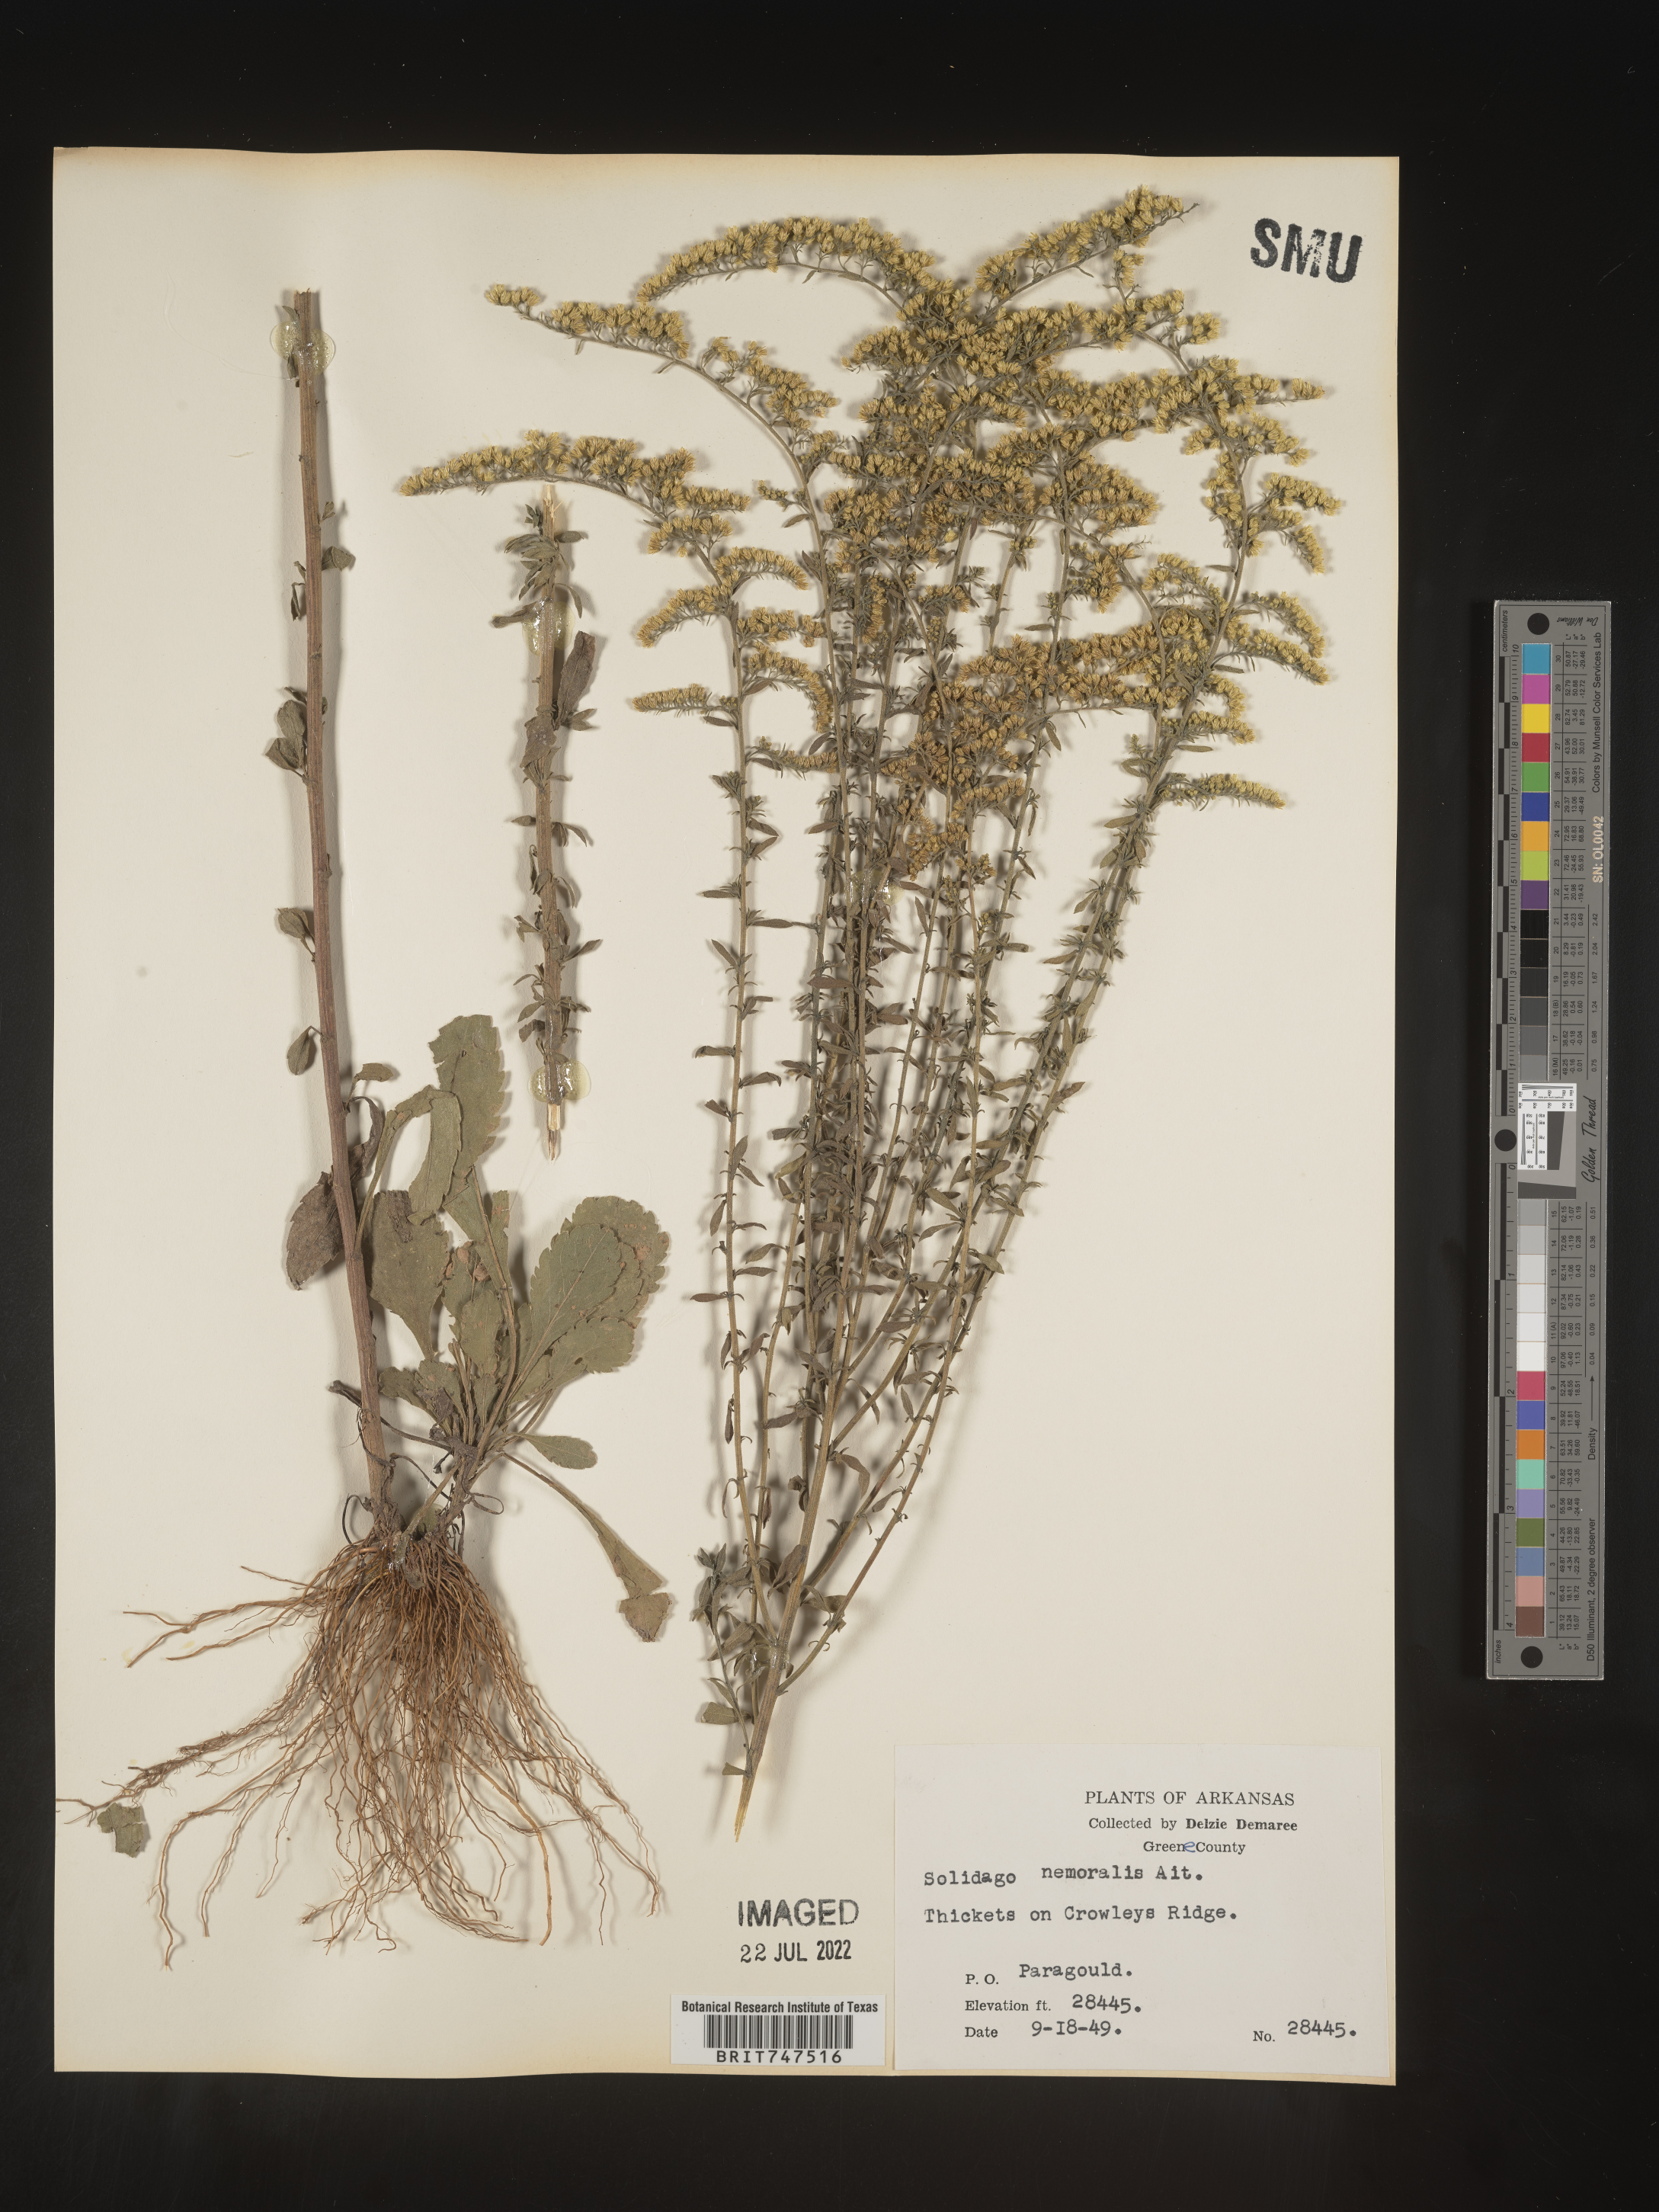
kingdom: Plantae
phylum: Tracheophyta
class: Magnoliopsida
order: Asterales
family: Asteraceae
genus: Solidago
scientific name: Solidago nemoralis
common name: Grey goldenrod
